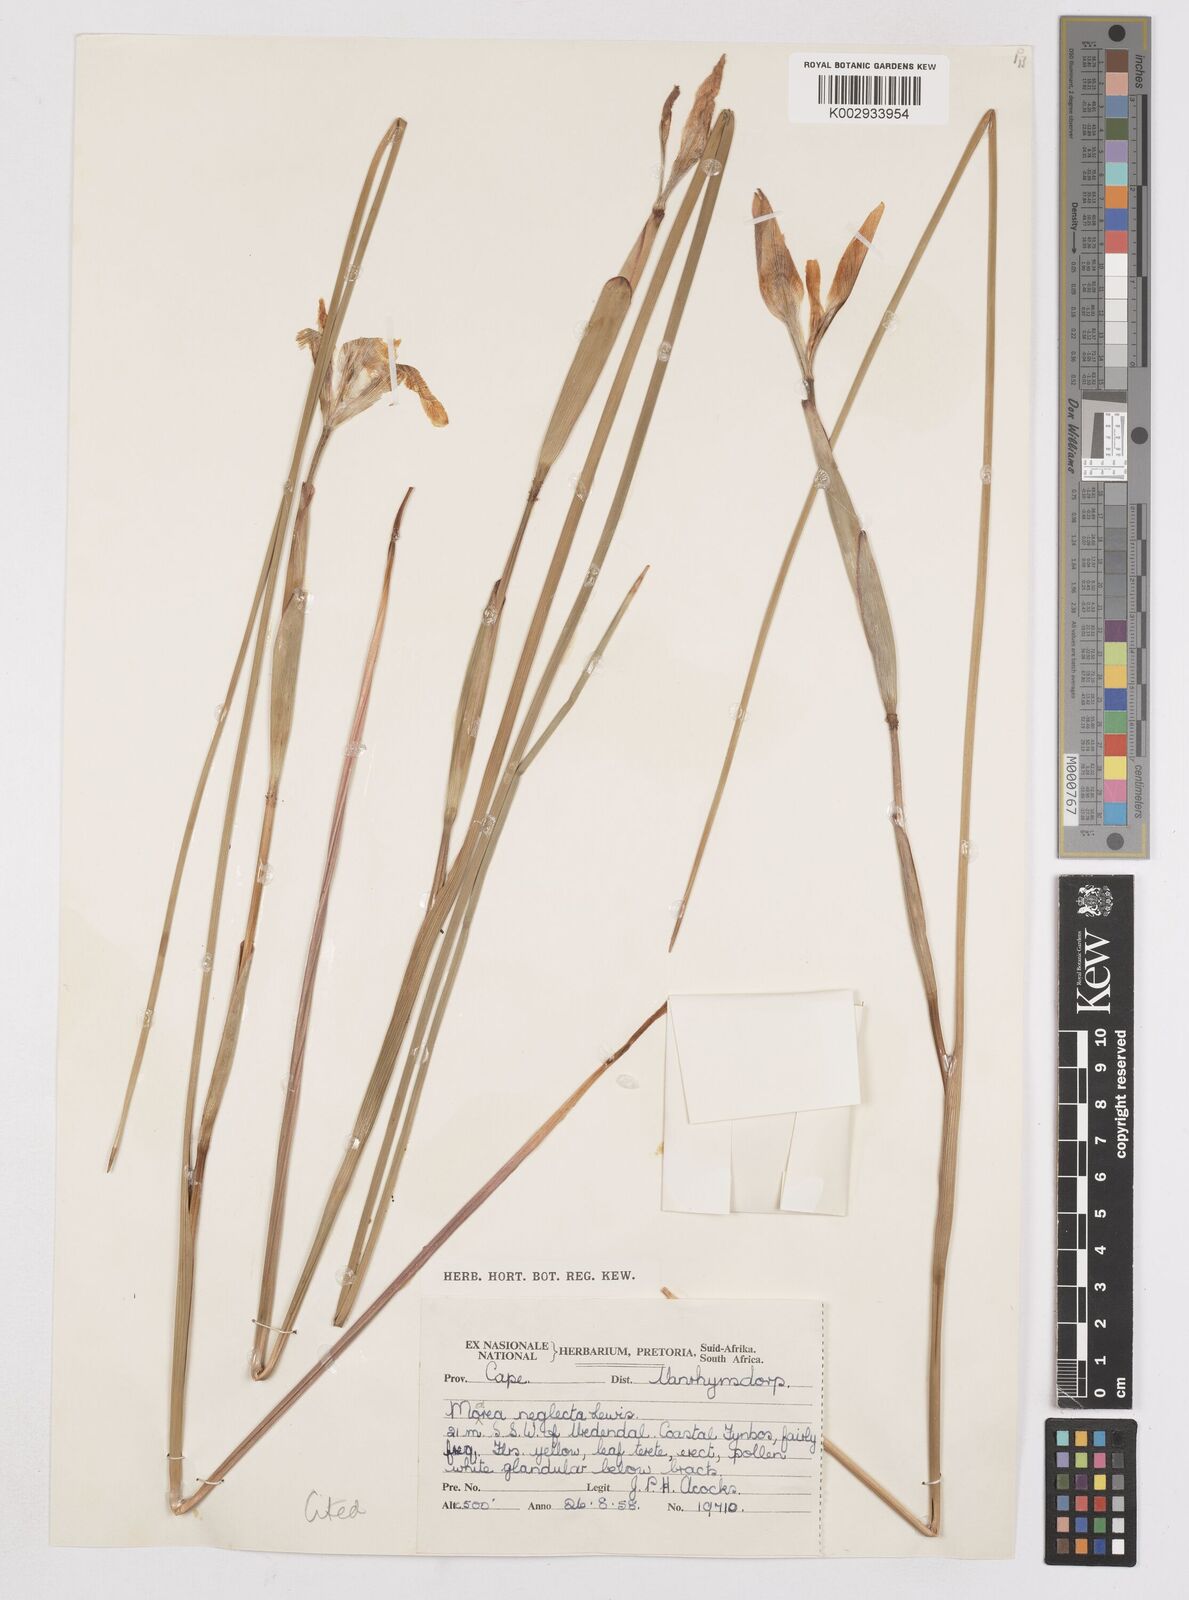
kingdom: Plantae
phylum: Tracheophyta
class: Liliopsida
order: Asparagales
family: Iridaceae
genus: Moraea
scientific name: Moraea neglecta
